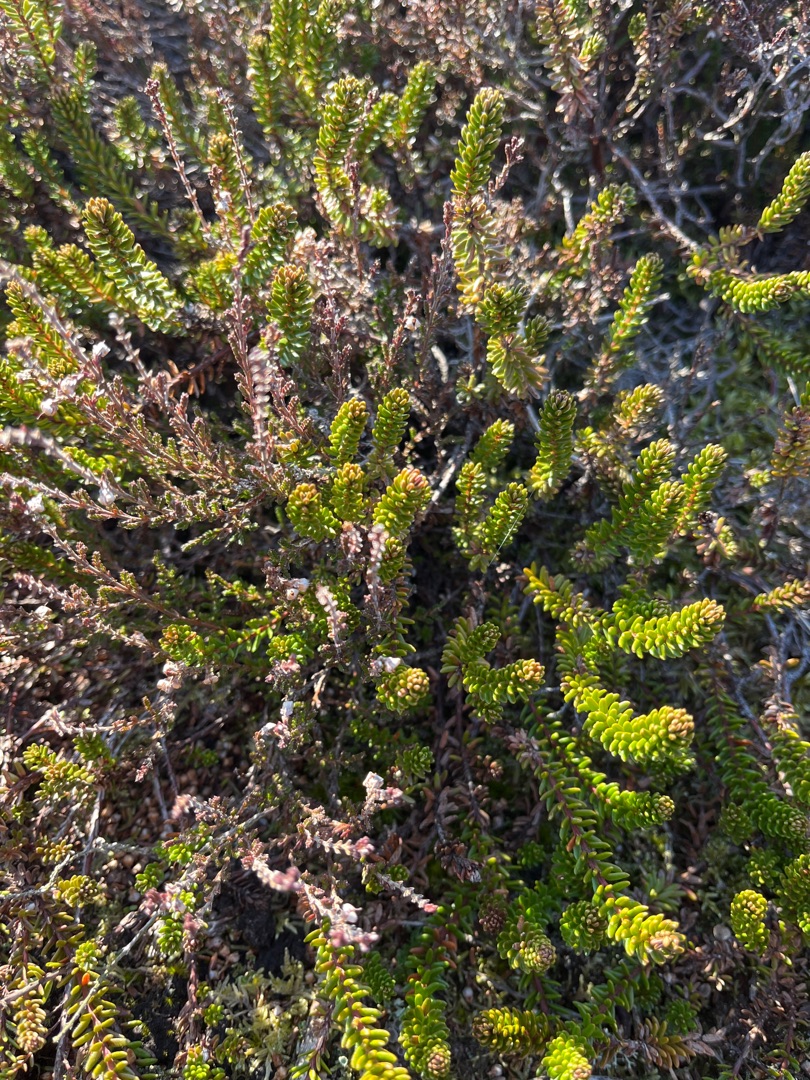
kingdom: Plantae
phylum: Tracheophyta
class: Magnoliopsida
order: Ericales
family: Ericaceae
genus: Empetrum
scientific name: Empetrum nigrum
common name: Revling
